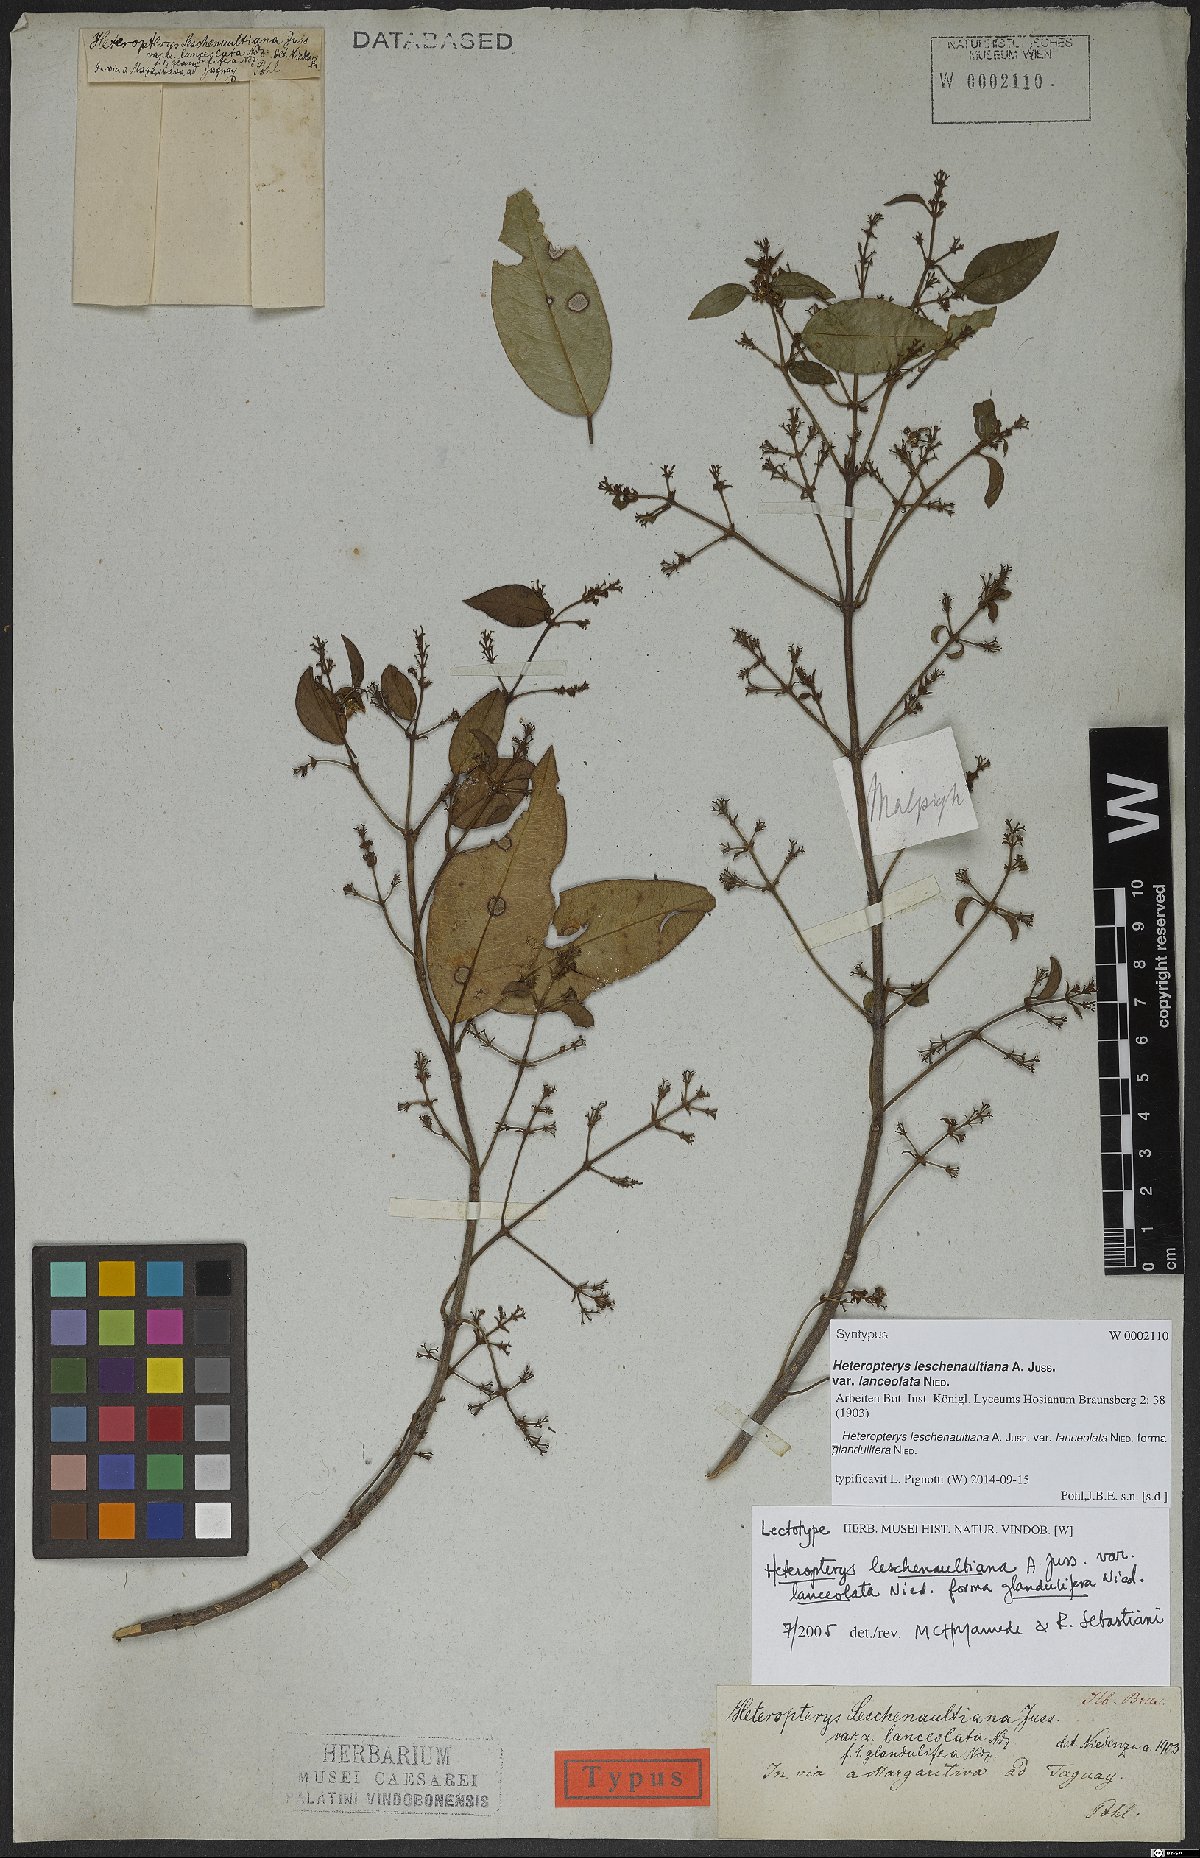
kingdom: Plantae
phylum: Tracheophyta
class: Magnoliopsida
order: Malpighiales
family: Malpighiaceae
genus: Heteropterys
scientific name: Heteropterys leschenaultiana
